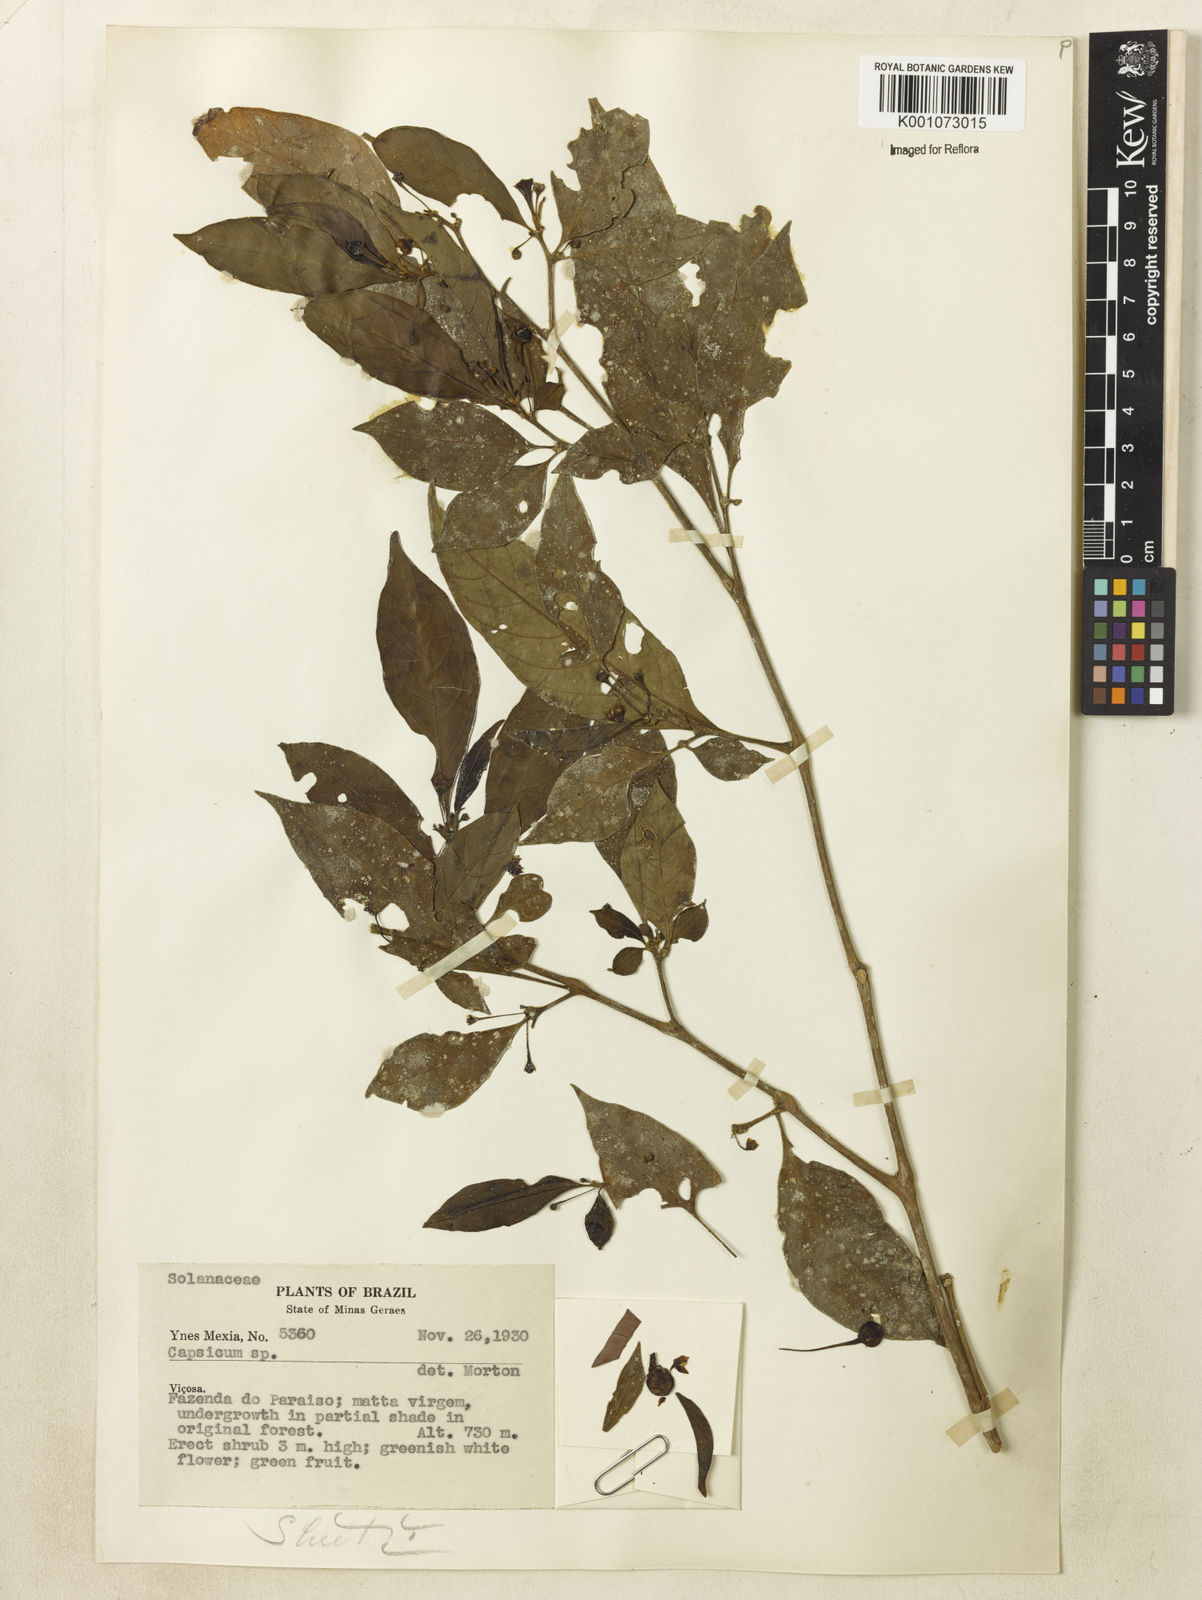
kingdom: Plantae
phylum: Tracheophyta
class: Magnoliopsida
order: Solanales
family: Solanaceae
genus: Athenaea
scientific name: Athenaea fasciculata
